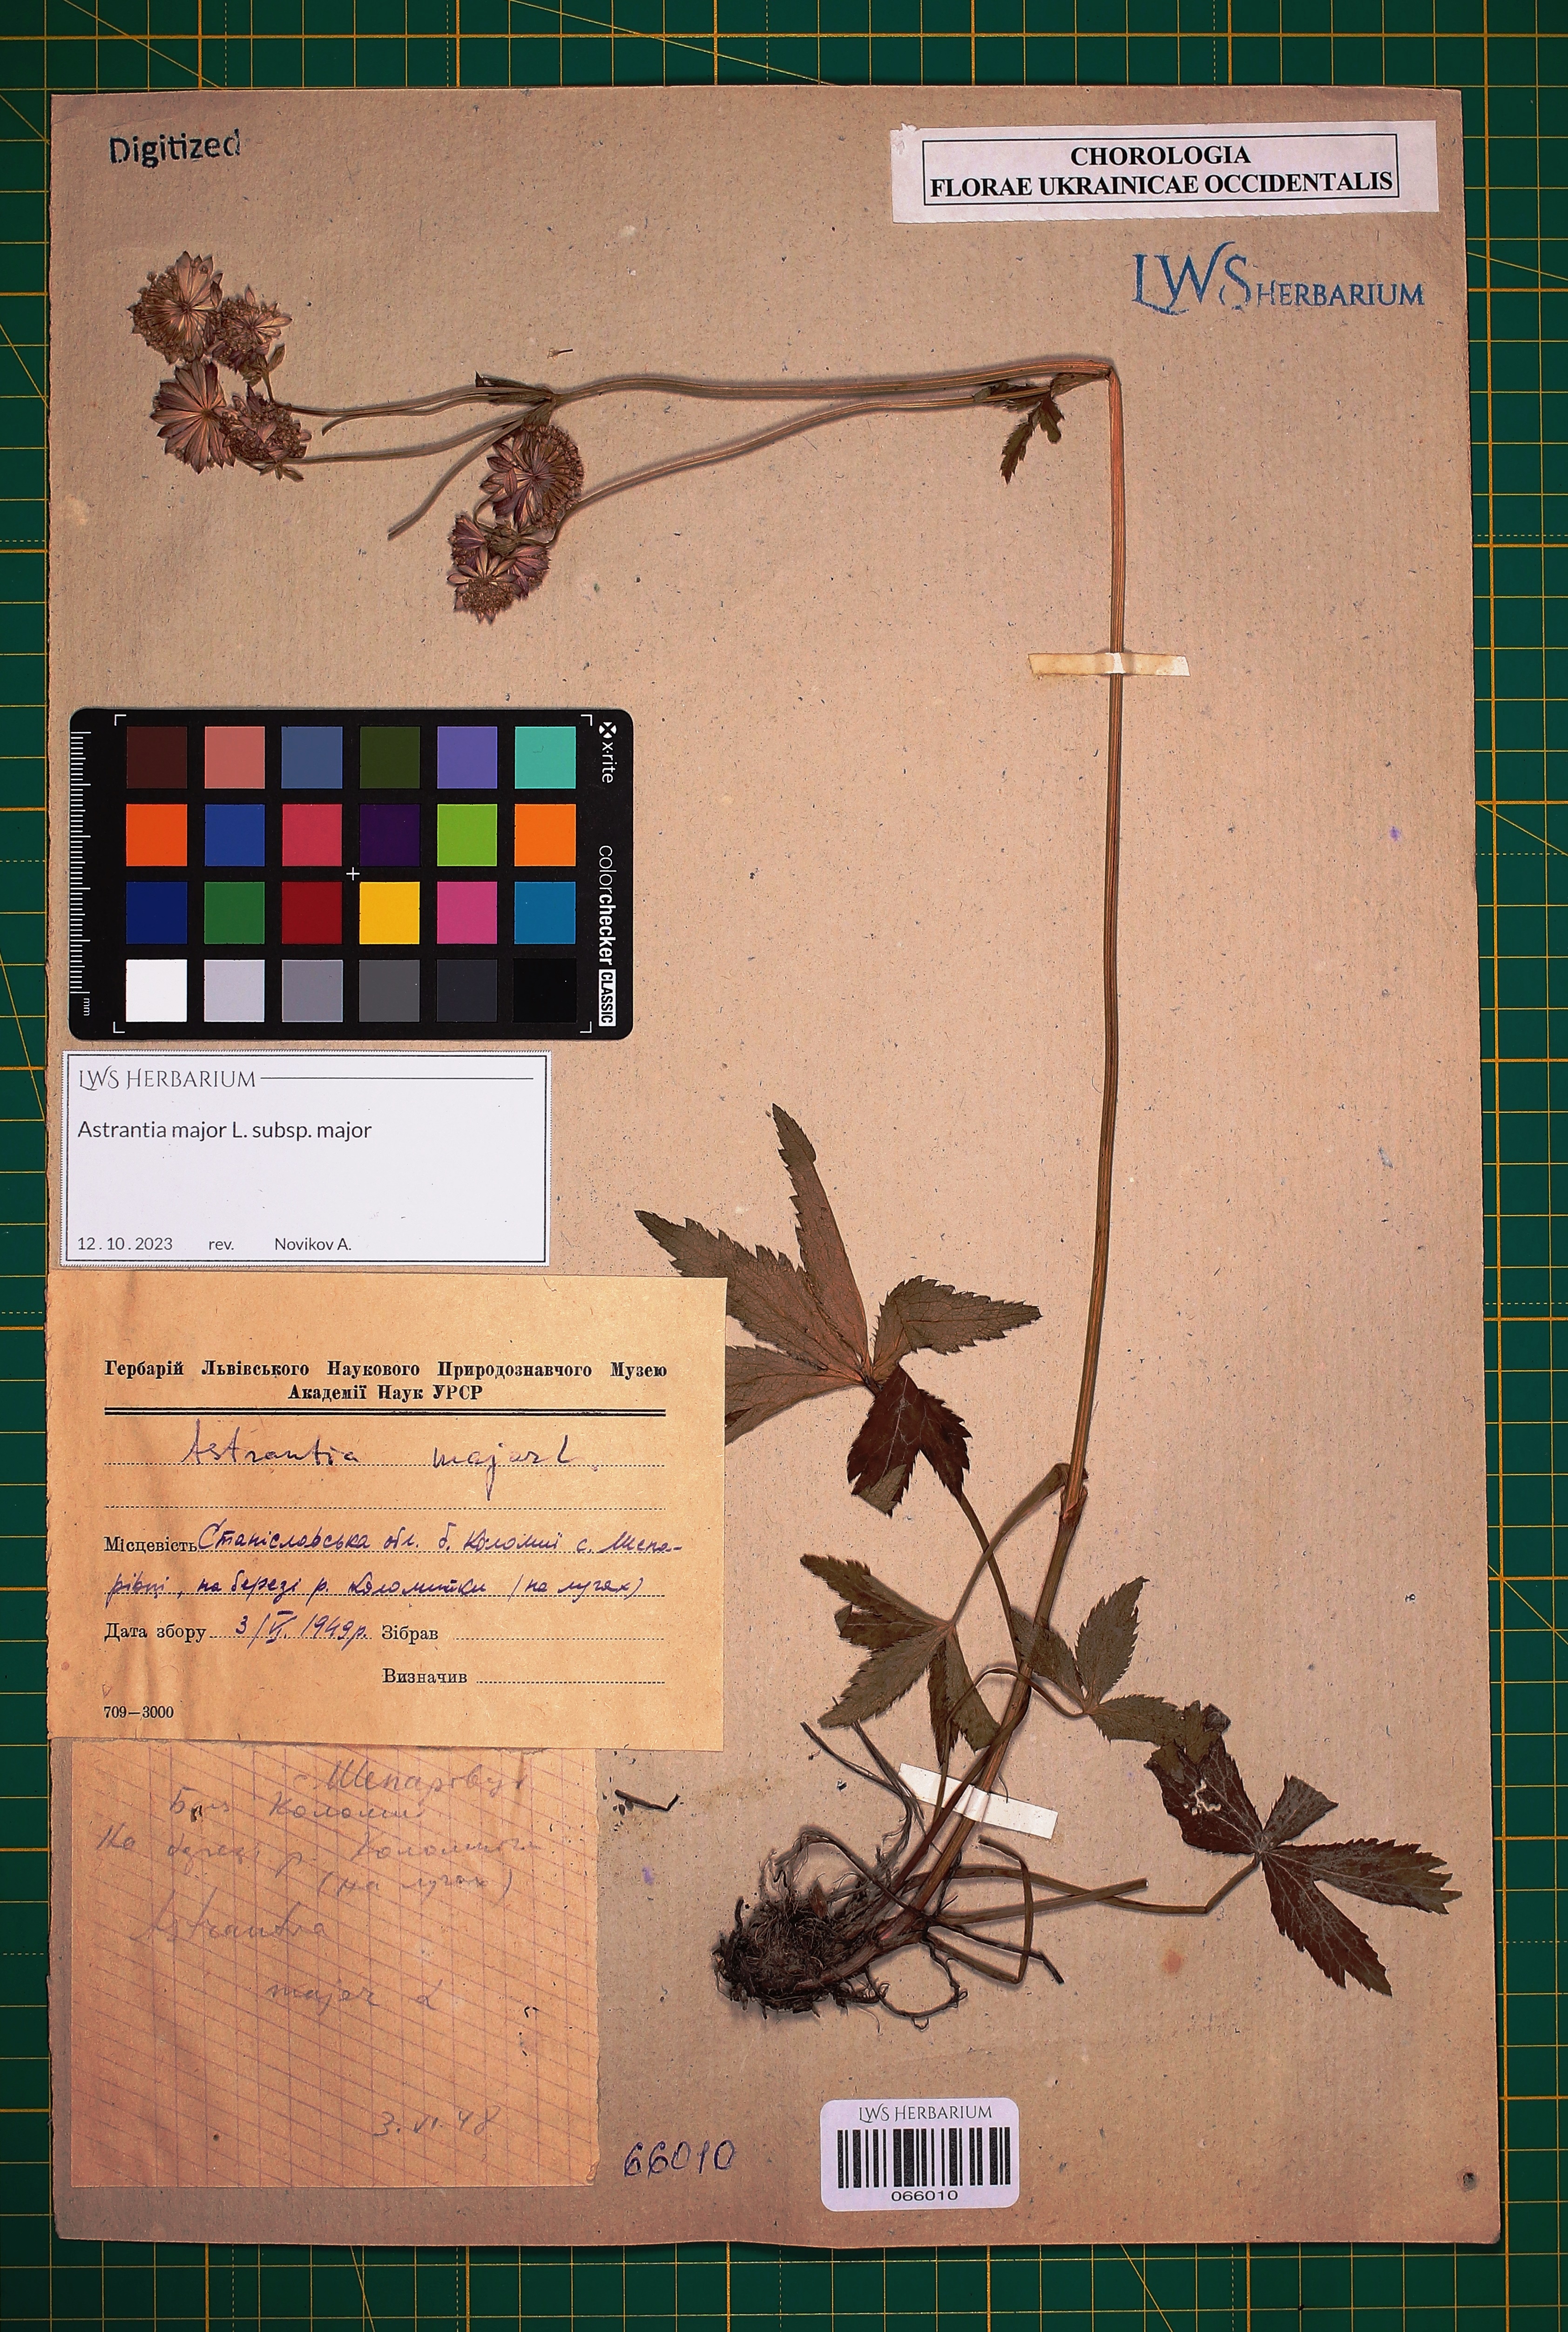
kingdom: Plantae
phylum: Tracheophyta
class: Magnoliopsida
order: Apiales
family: Apiaceae
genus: Astrantia
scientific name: Astrantia major
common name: Greater masterwort
